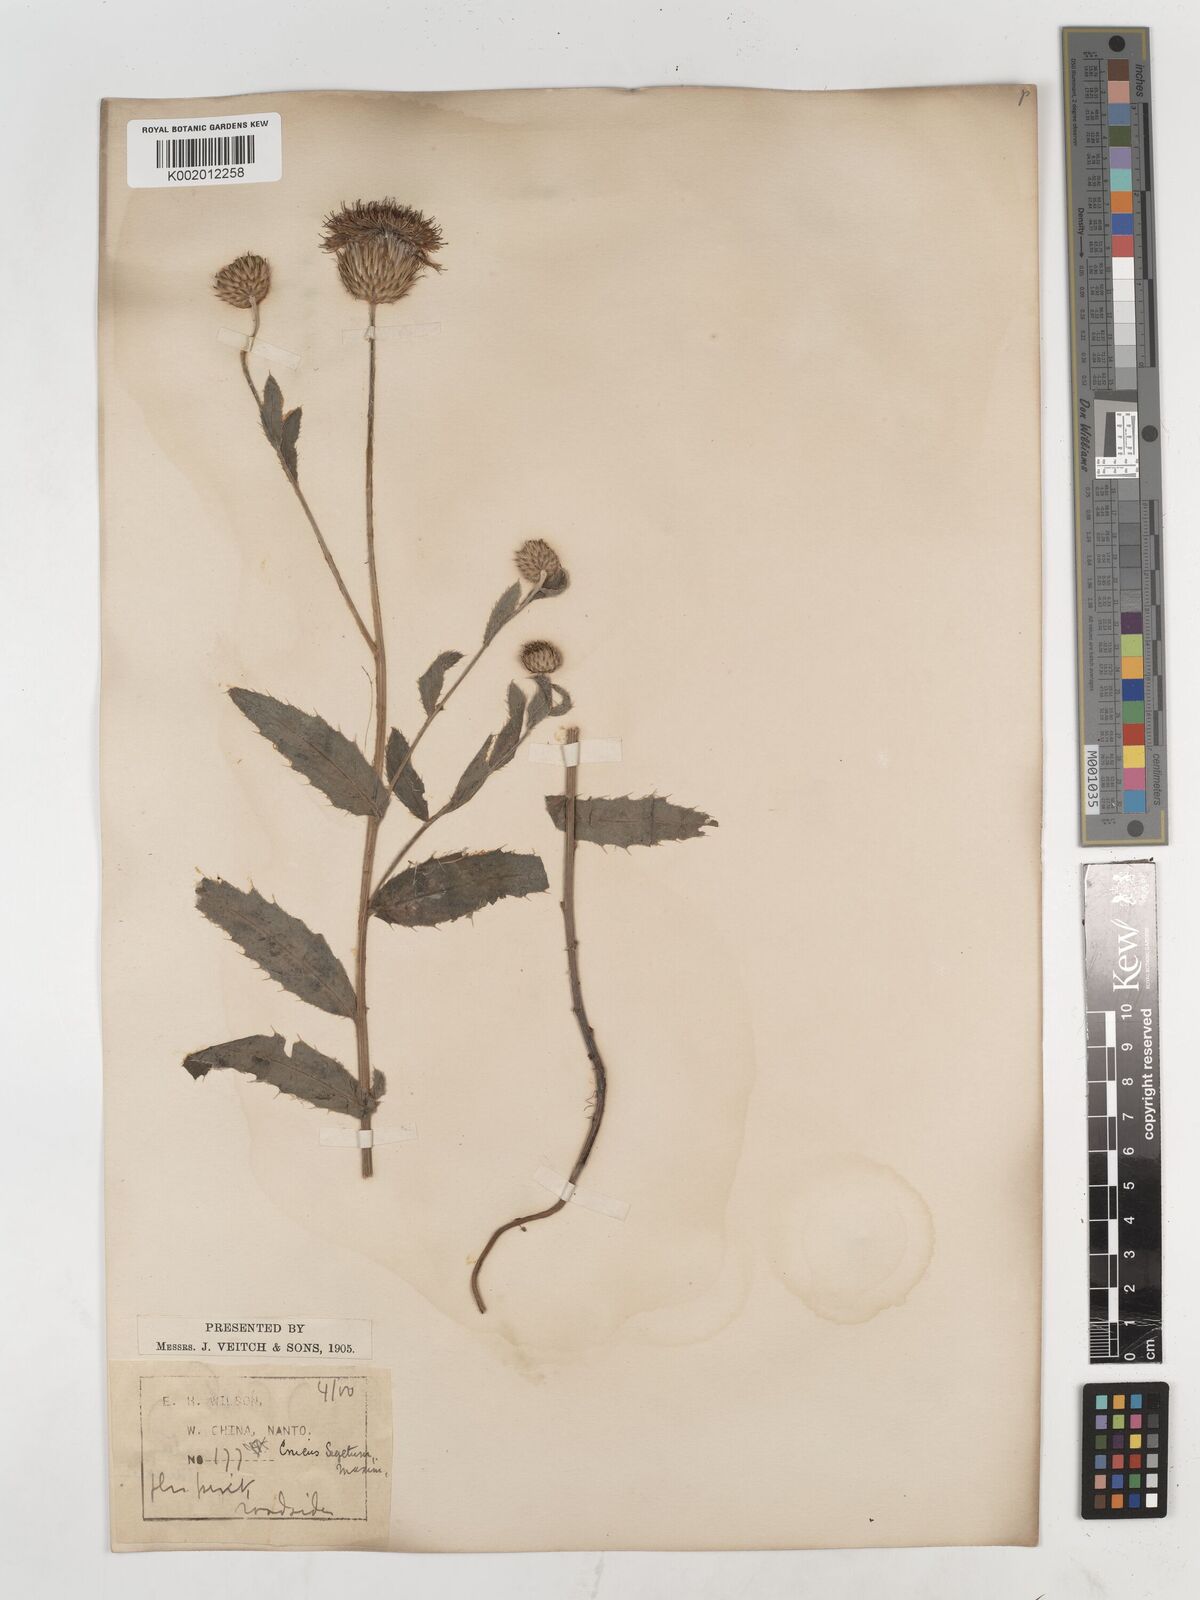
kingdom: Plantae
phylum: Tracheophyta
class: Magnoliopsida
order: Asterales
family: Asteraceae
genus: Cirsium
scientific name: Cirsium arvense
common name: Creeping thistle
